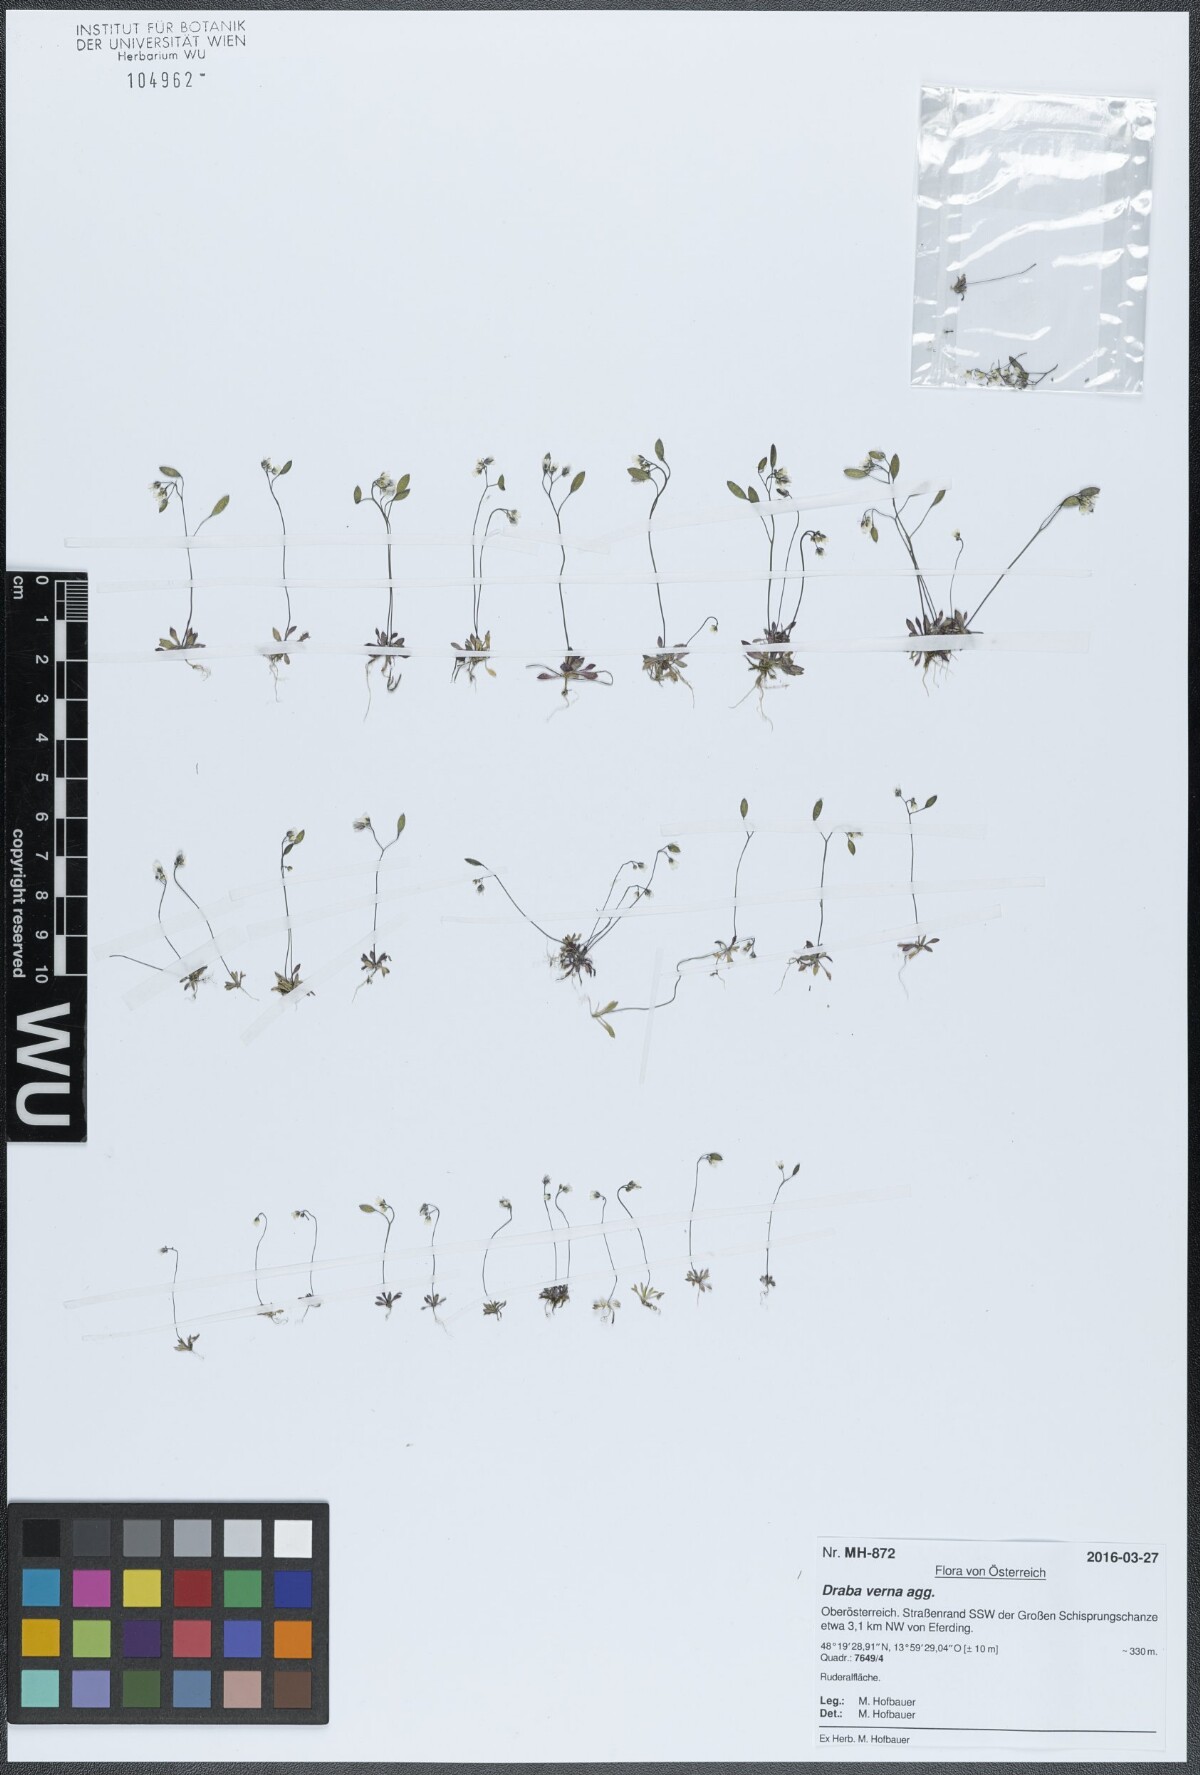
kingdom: Plantae
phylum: Tracheophyta
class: Magnoliopsida
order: Brassicales
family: Brassicaceae
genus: Draba
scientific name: Draba verna
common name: Spring draba
